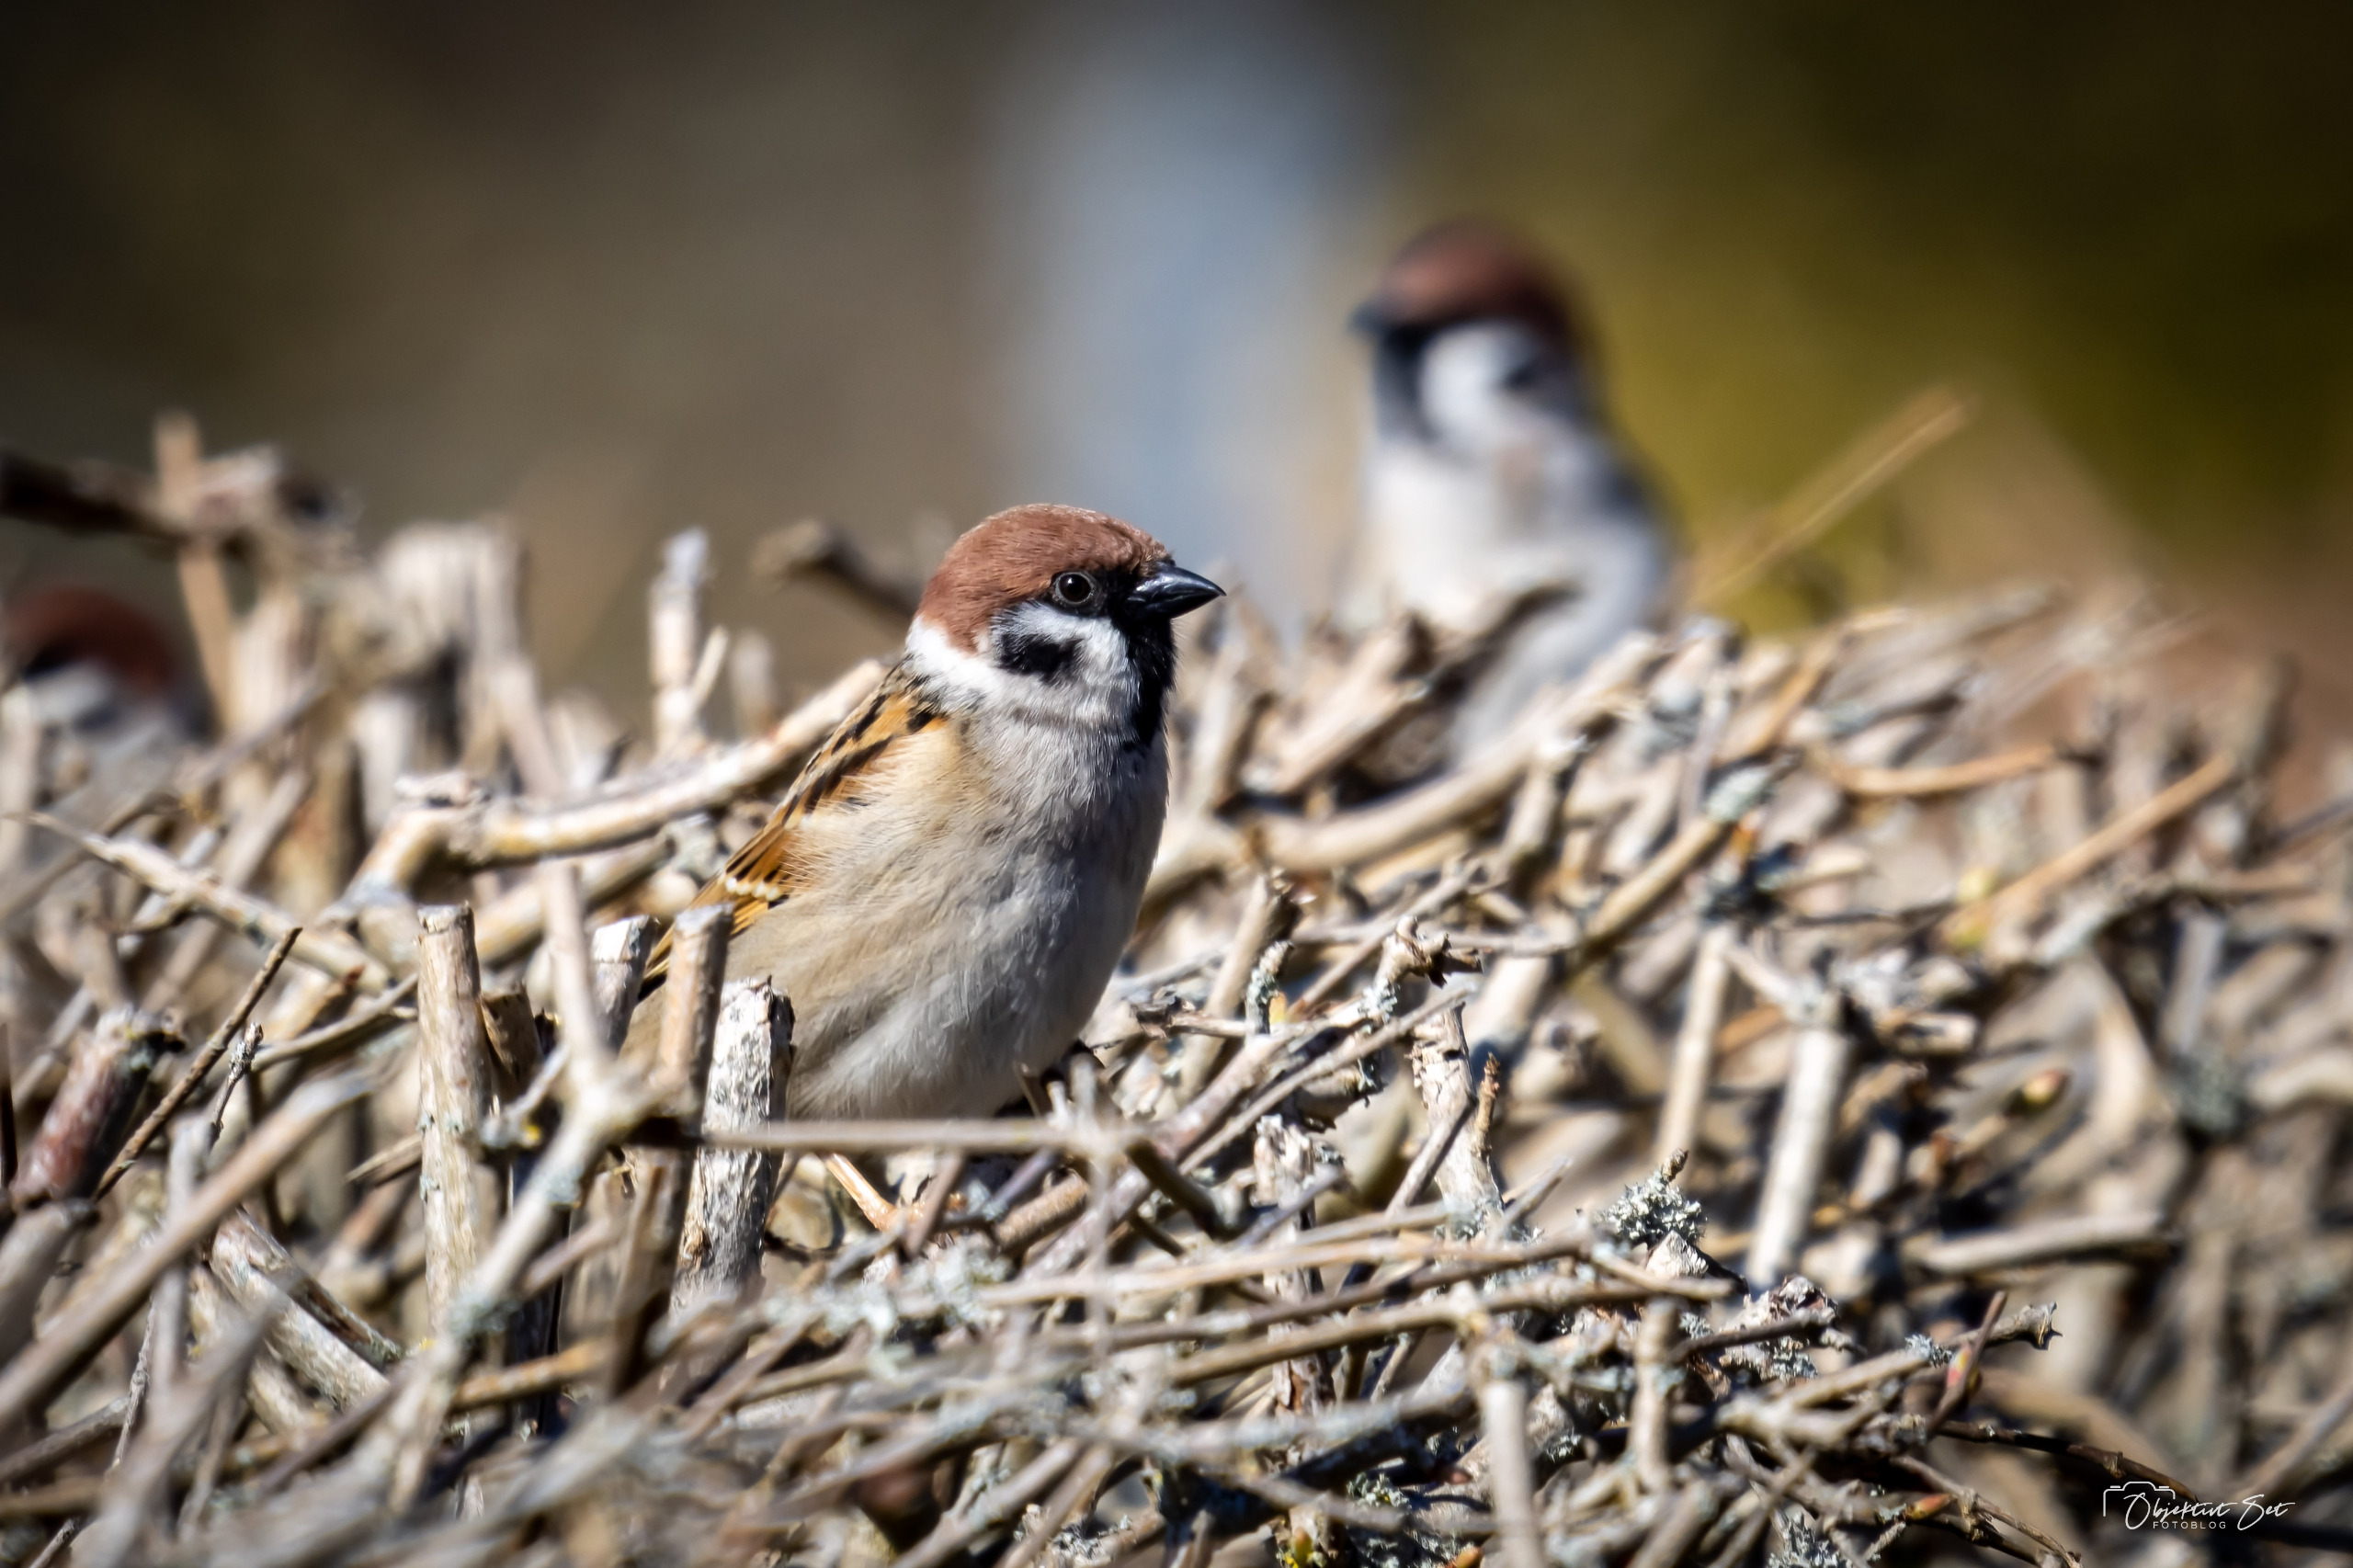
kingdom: Animalia
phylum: Chordata
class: Aves
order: Passeriformes
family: Passeridae
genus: Passer
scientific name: Passer montanus
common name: Skovspurv
